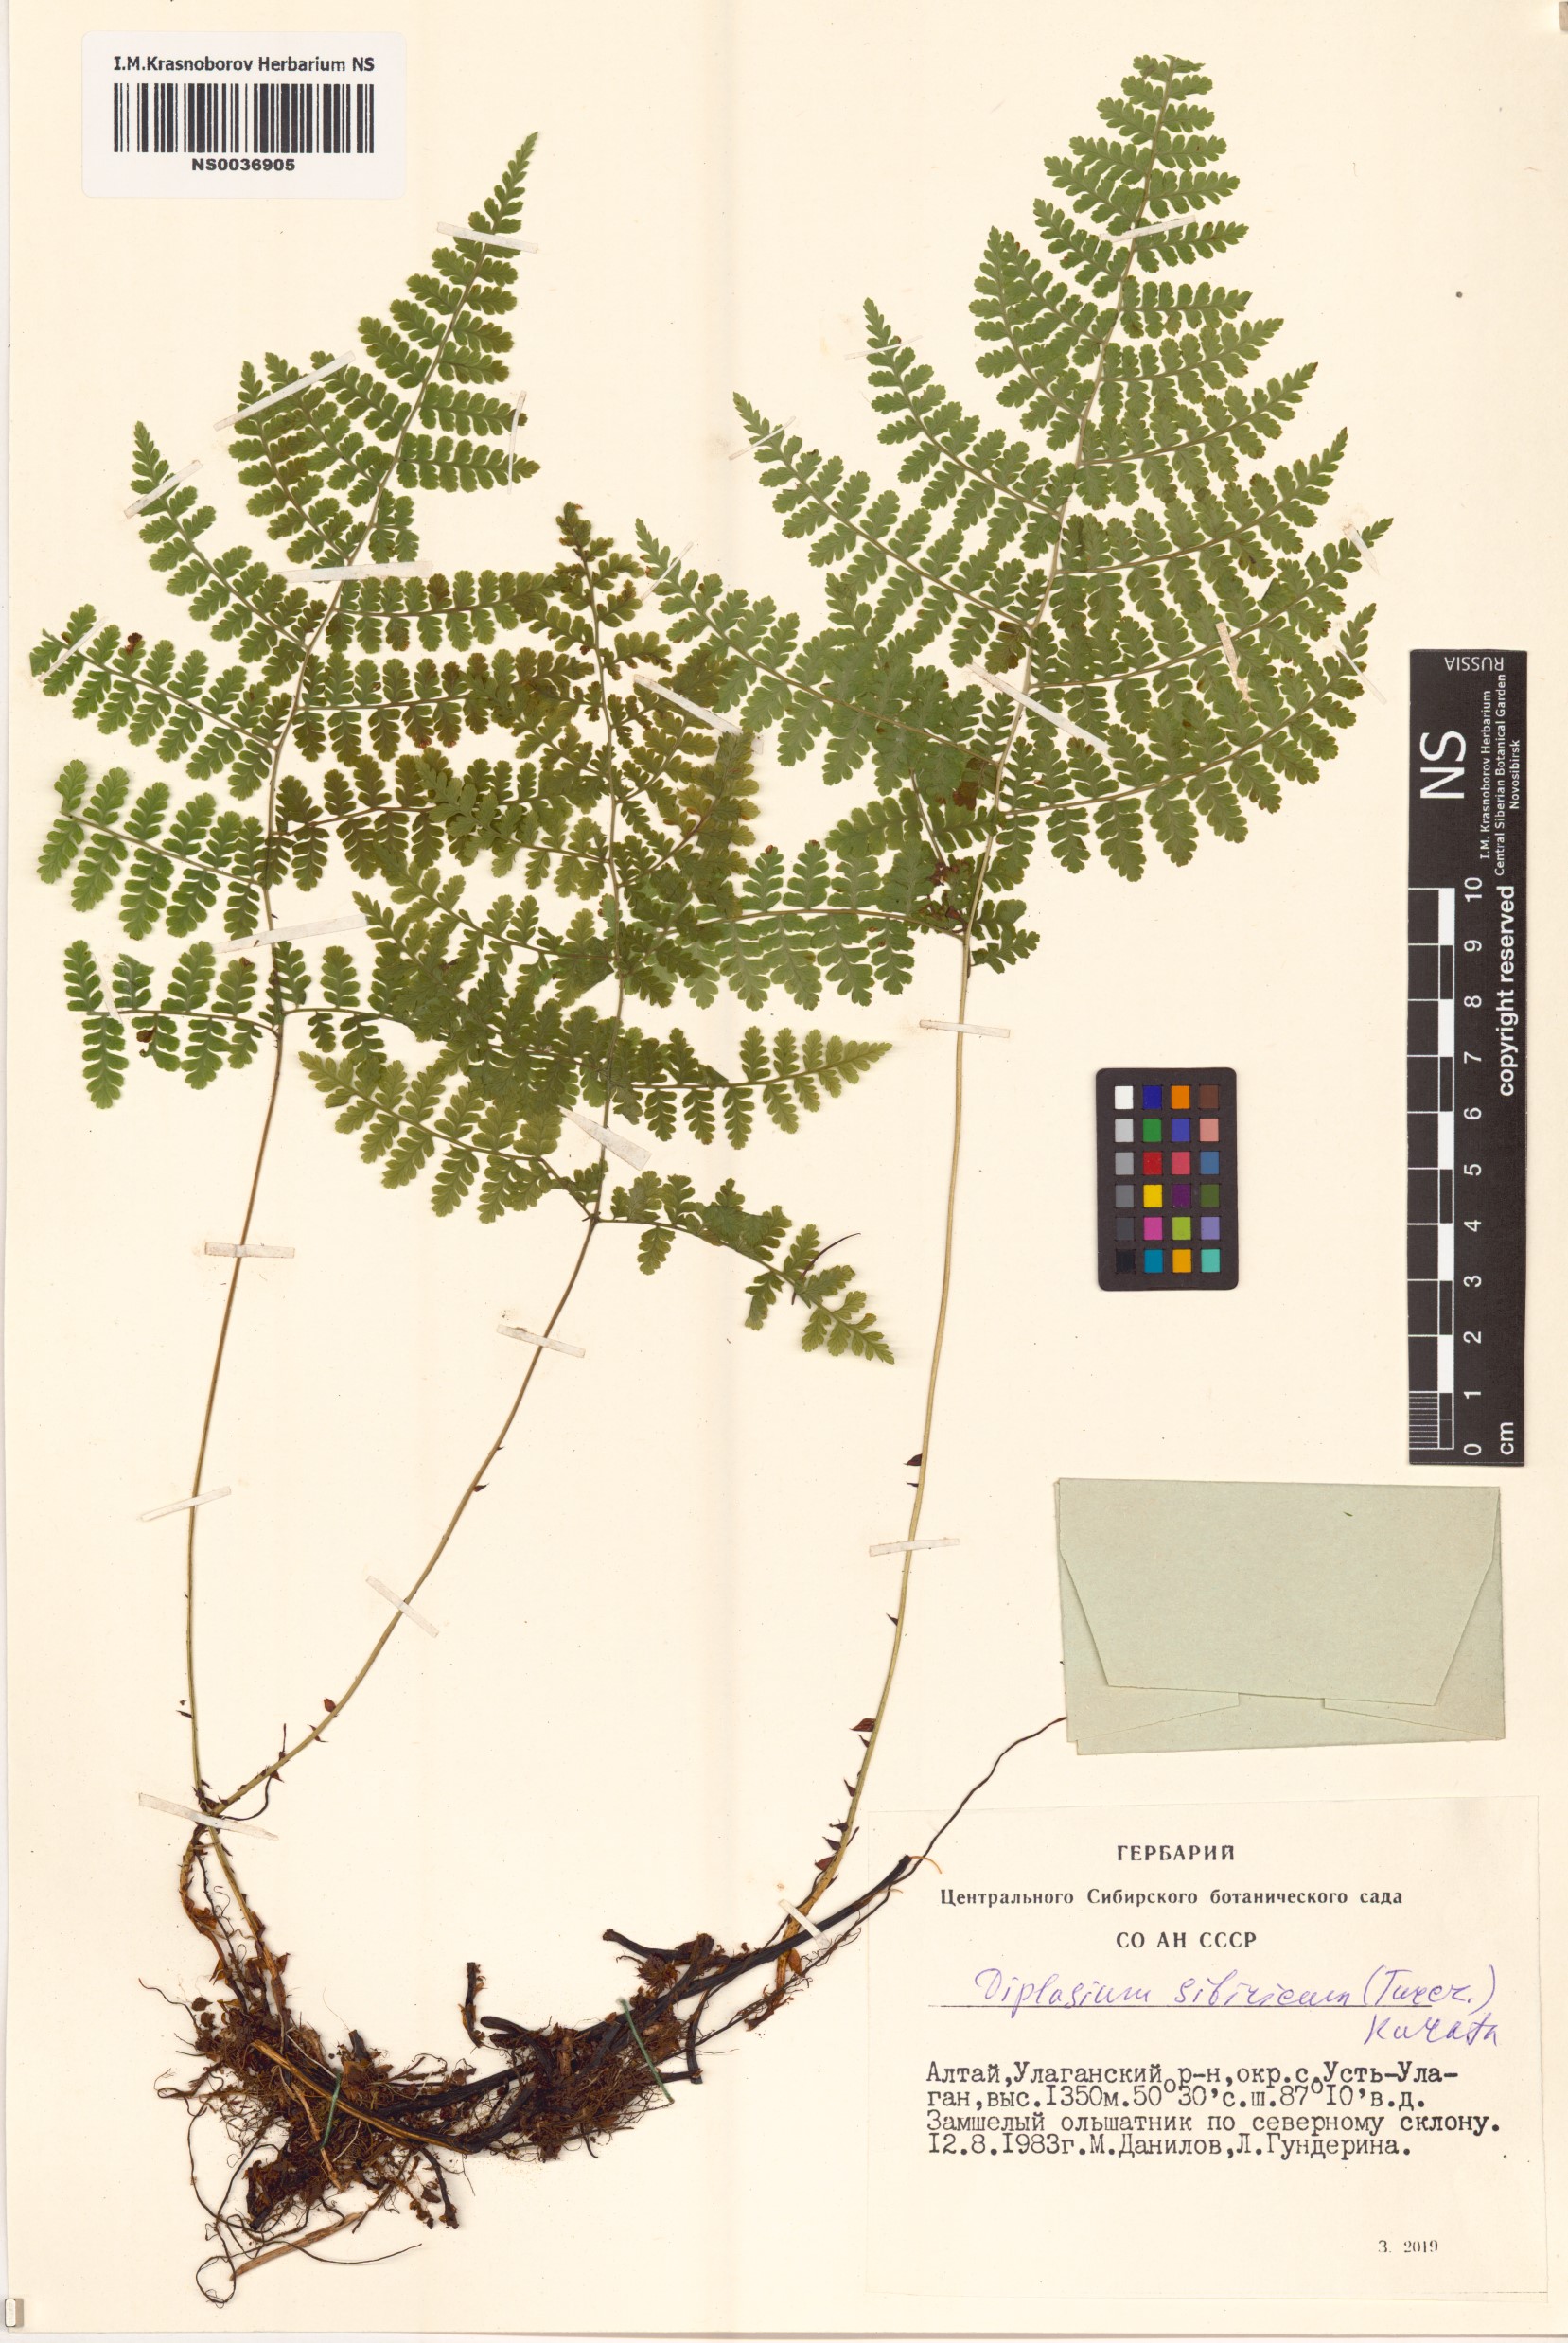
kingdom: Plantae
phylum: Tracheophyta
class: Polypodiopsida
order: Polypodiales
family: Athyriaceae
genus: Diplazium
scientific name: Diplazium sibiricum
